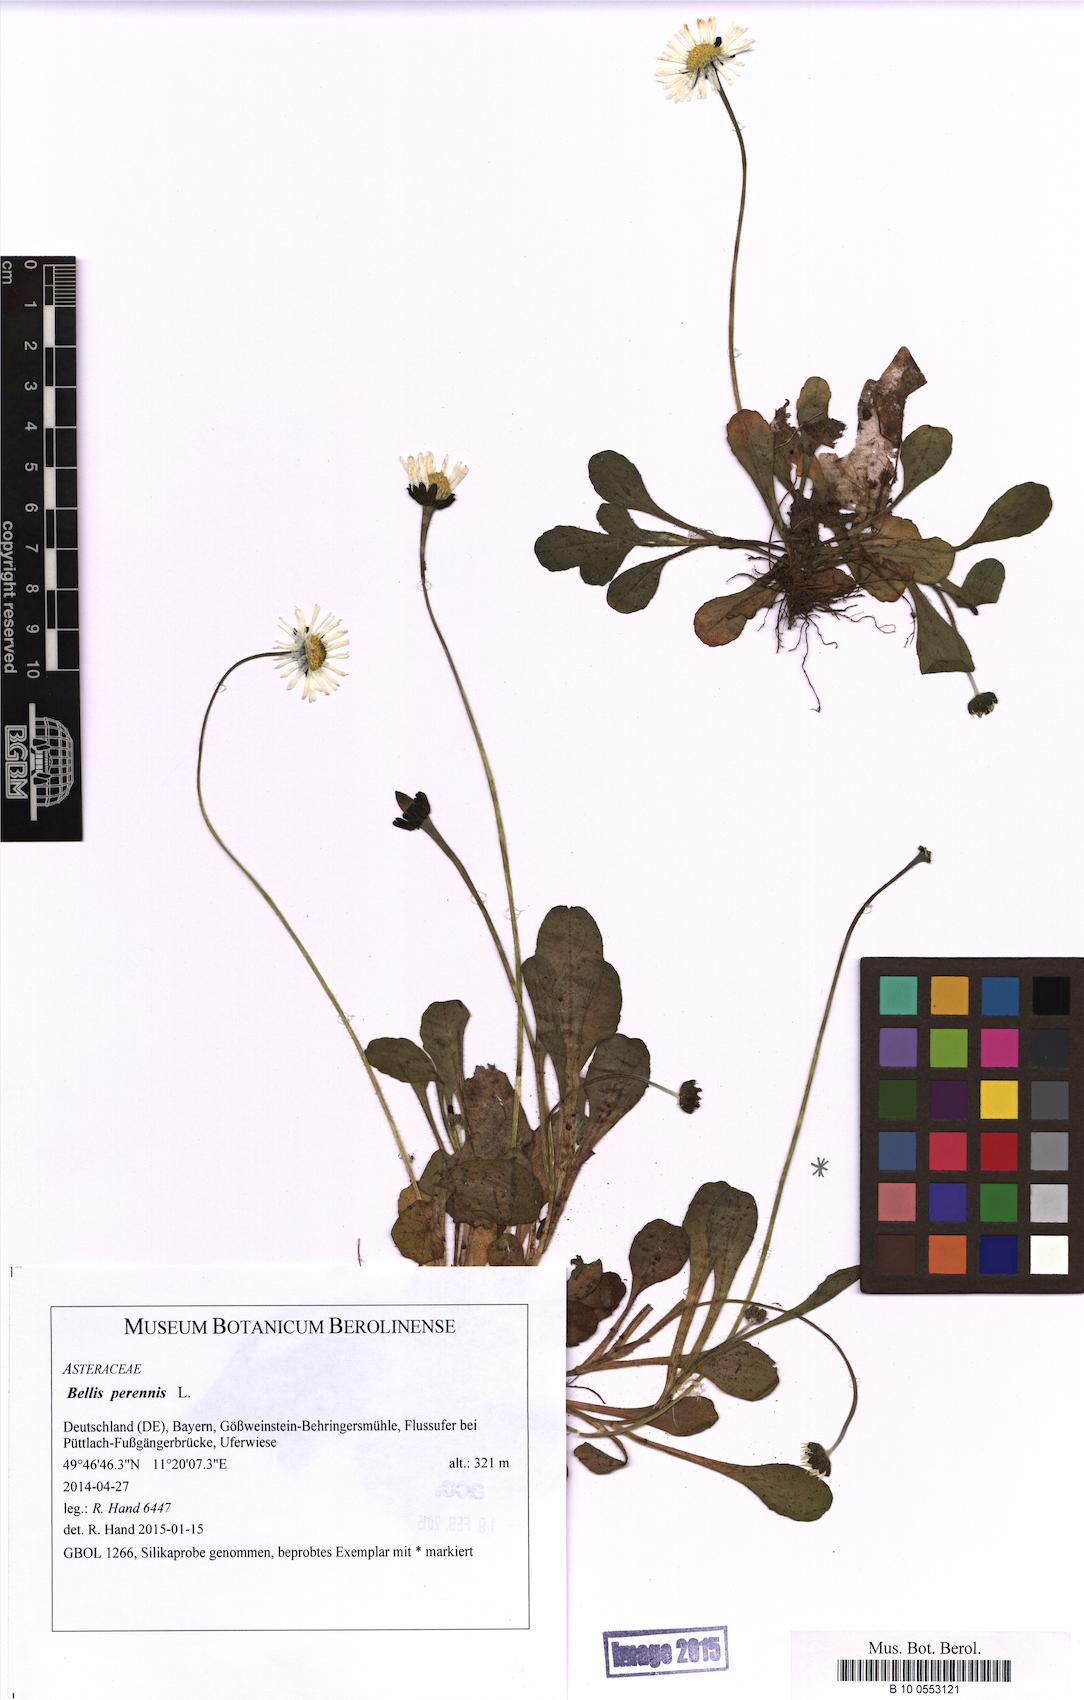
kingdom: Plantae
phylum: Tracheophyta
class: Magnoliopsida
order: Asterales
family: Asteraceae
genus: Bellis
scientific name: Bellis perennis
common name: Lawndaisy
